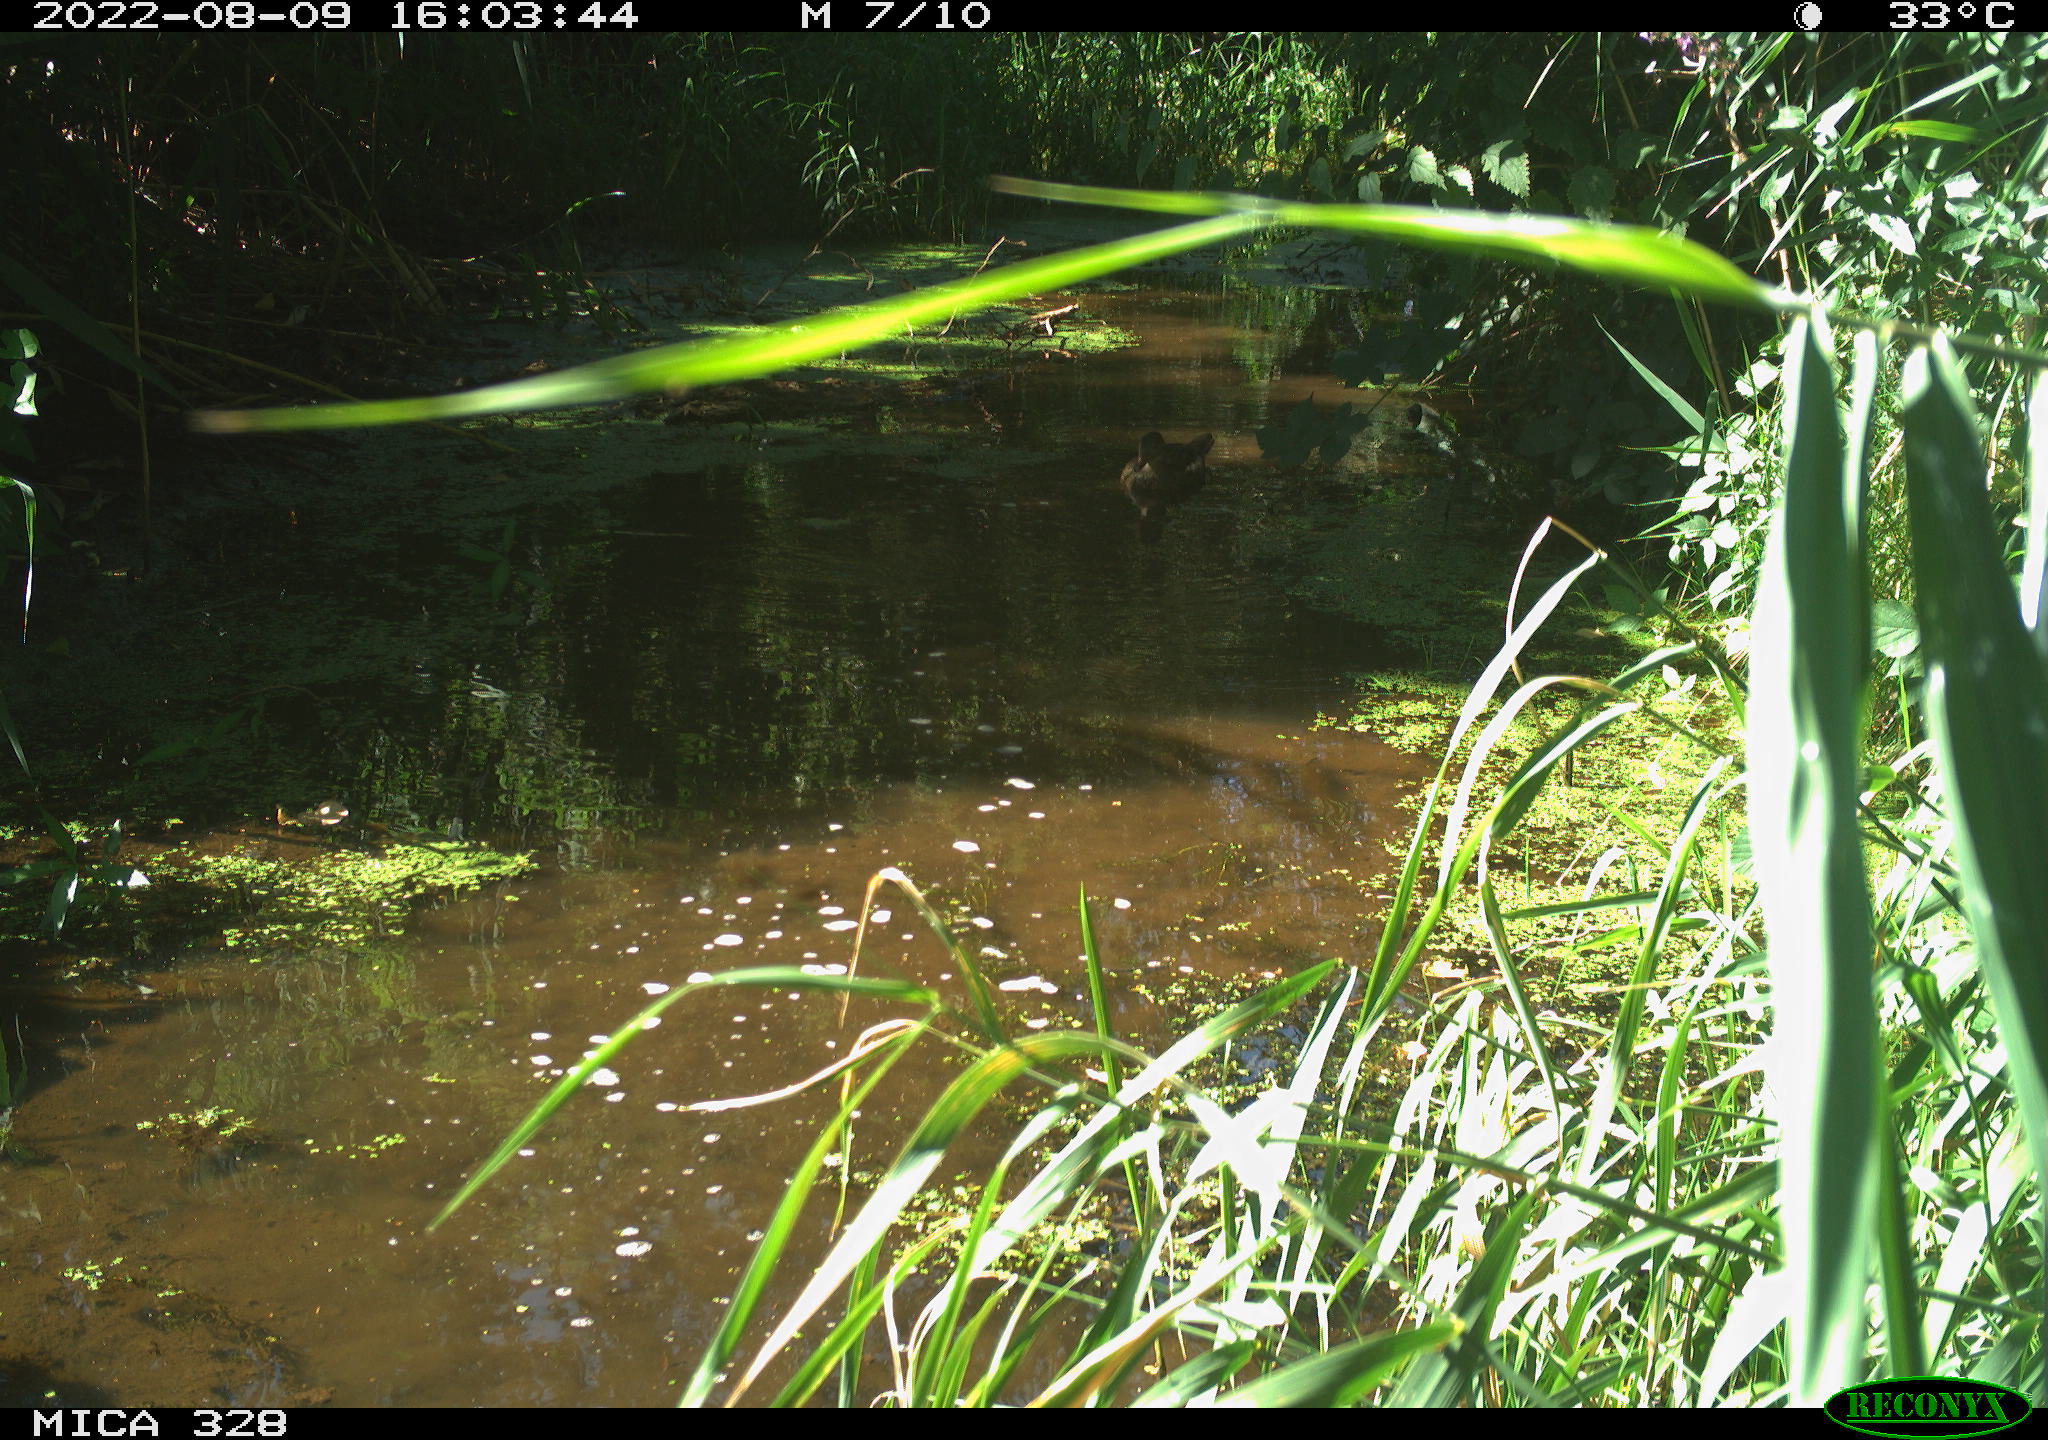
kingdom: Animalia
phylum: Chordata
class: Aves
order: Anseriformes
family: Anatidae
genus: Aix
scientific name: Aix galericulata
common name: Mandarin duck
